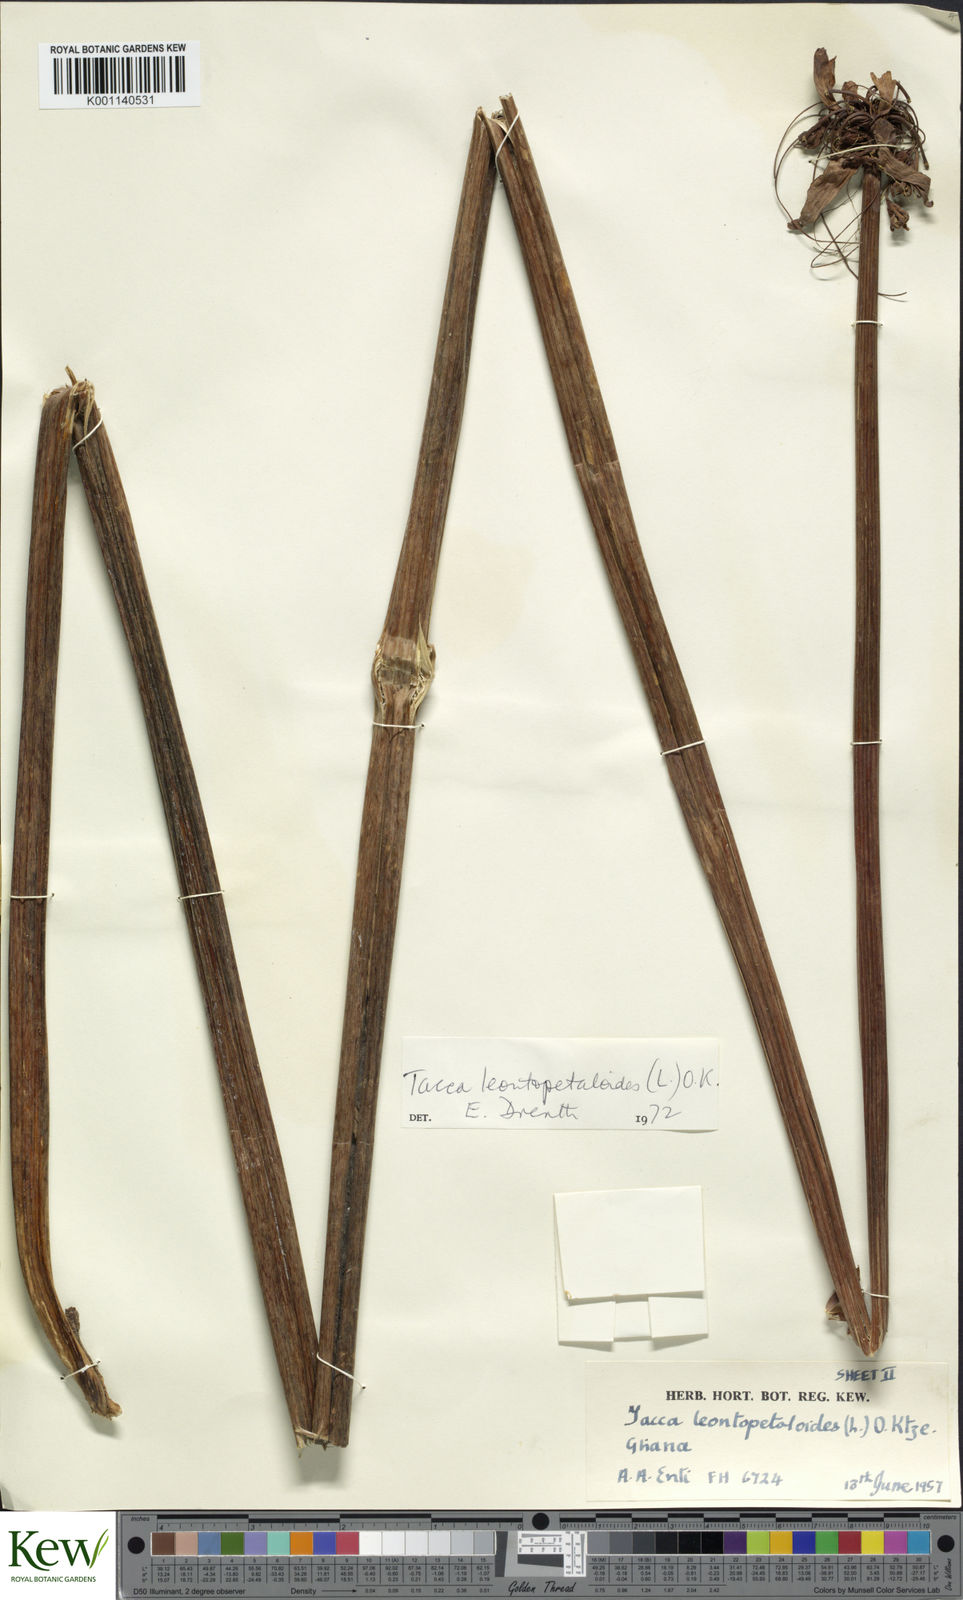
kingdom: Plantae
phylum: Tracheophyta
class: Liliopsida
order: Dioscoreales
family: Dioscoreaceae
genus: Tacca
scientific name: Tacca leontopetaloides
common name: Arrowroot
